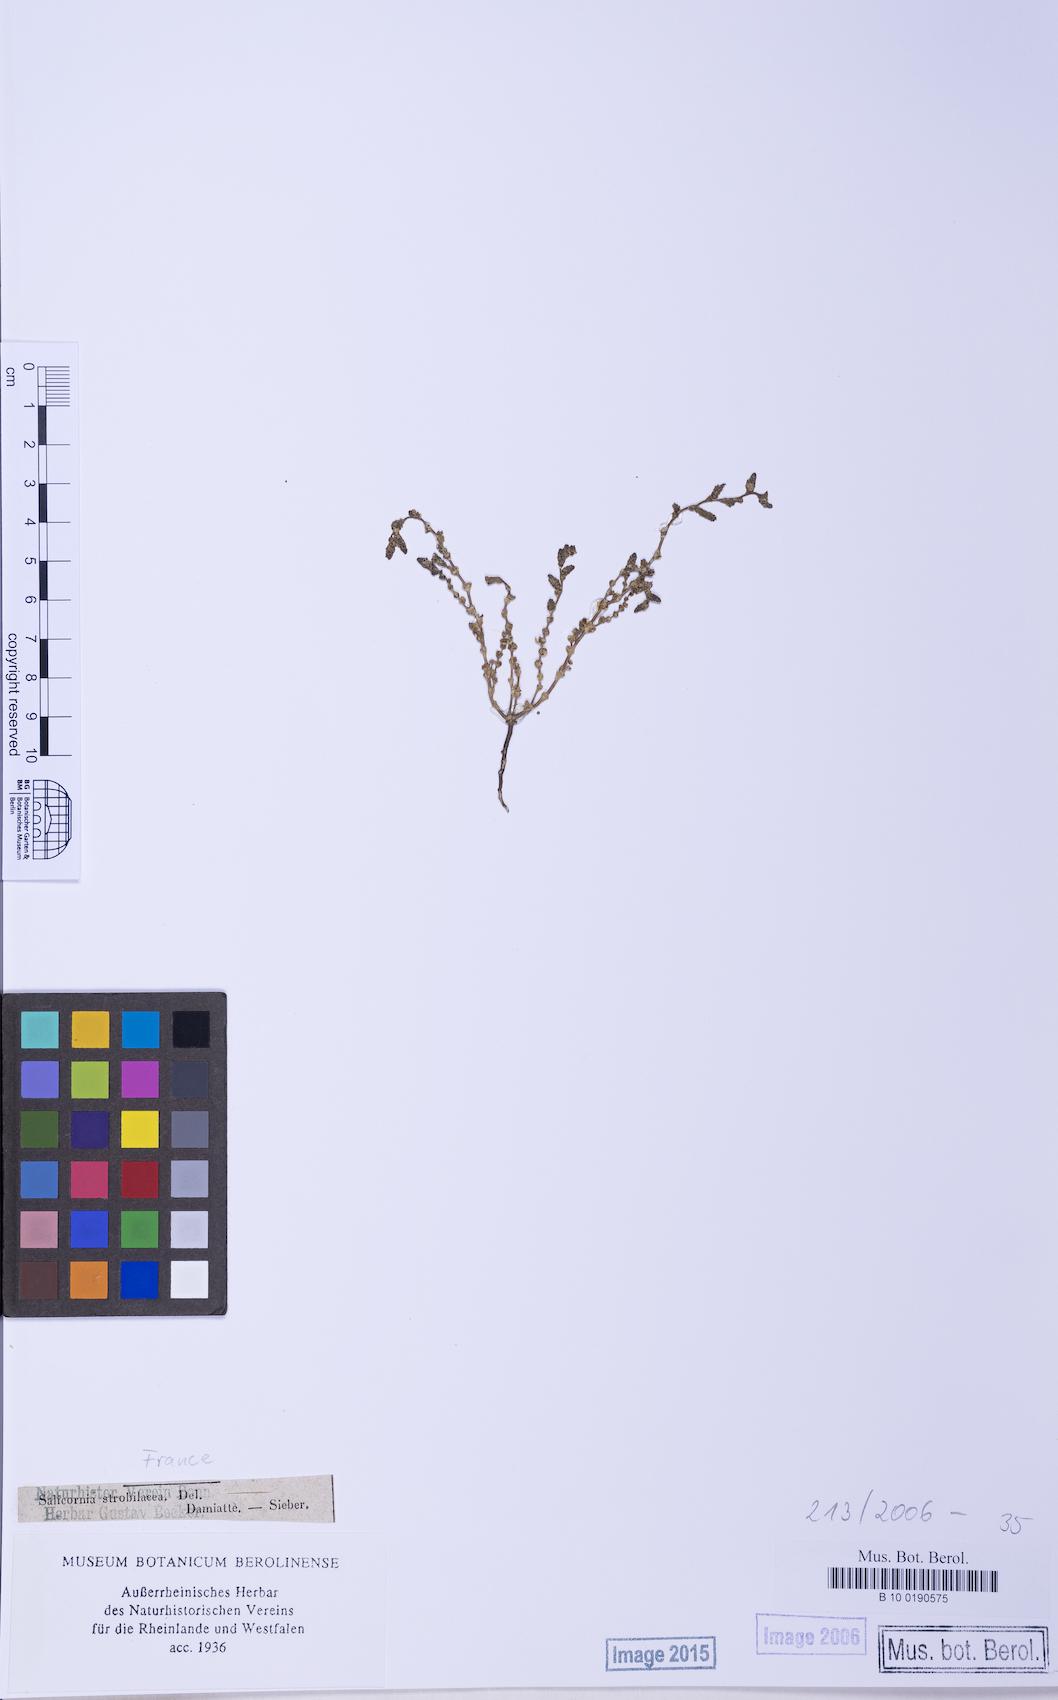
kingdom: Plantae
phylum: Tracheophyta
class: Magnoliopsida
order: Caryophyllales
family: Amaranthaceae
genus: Halocnemum
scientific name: Halocnemum strobilaceum
